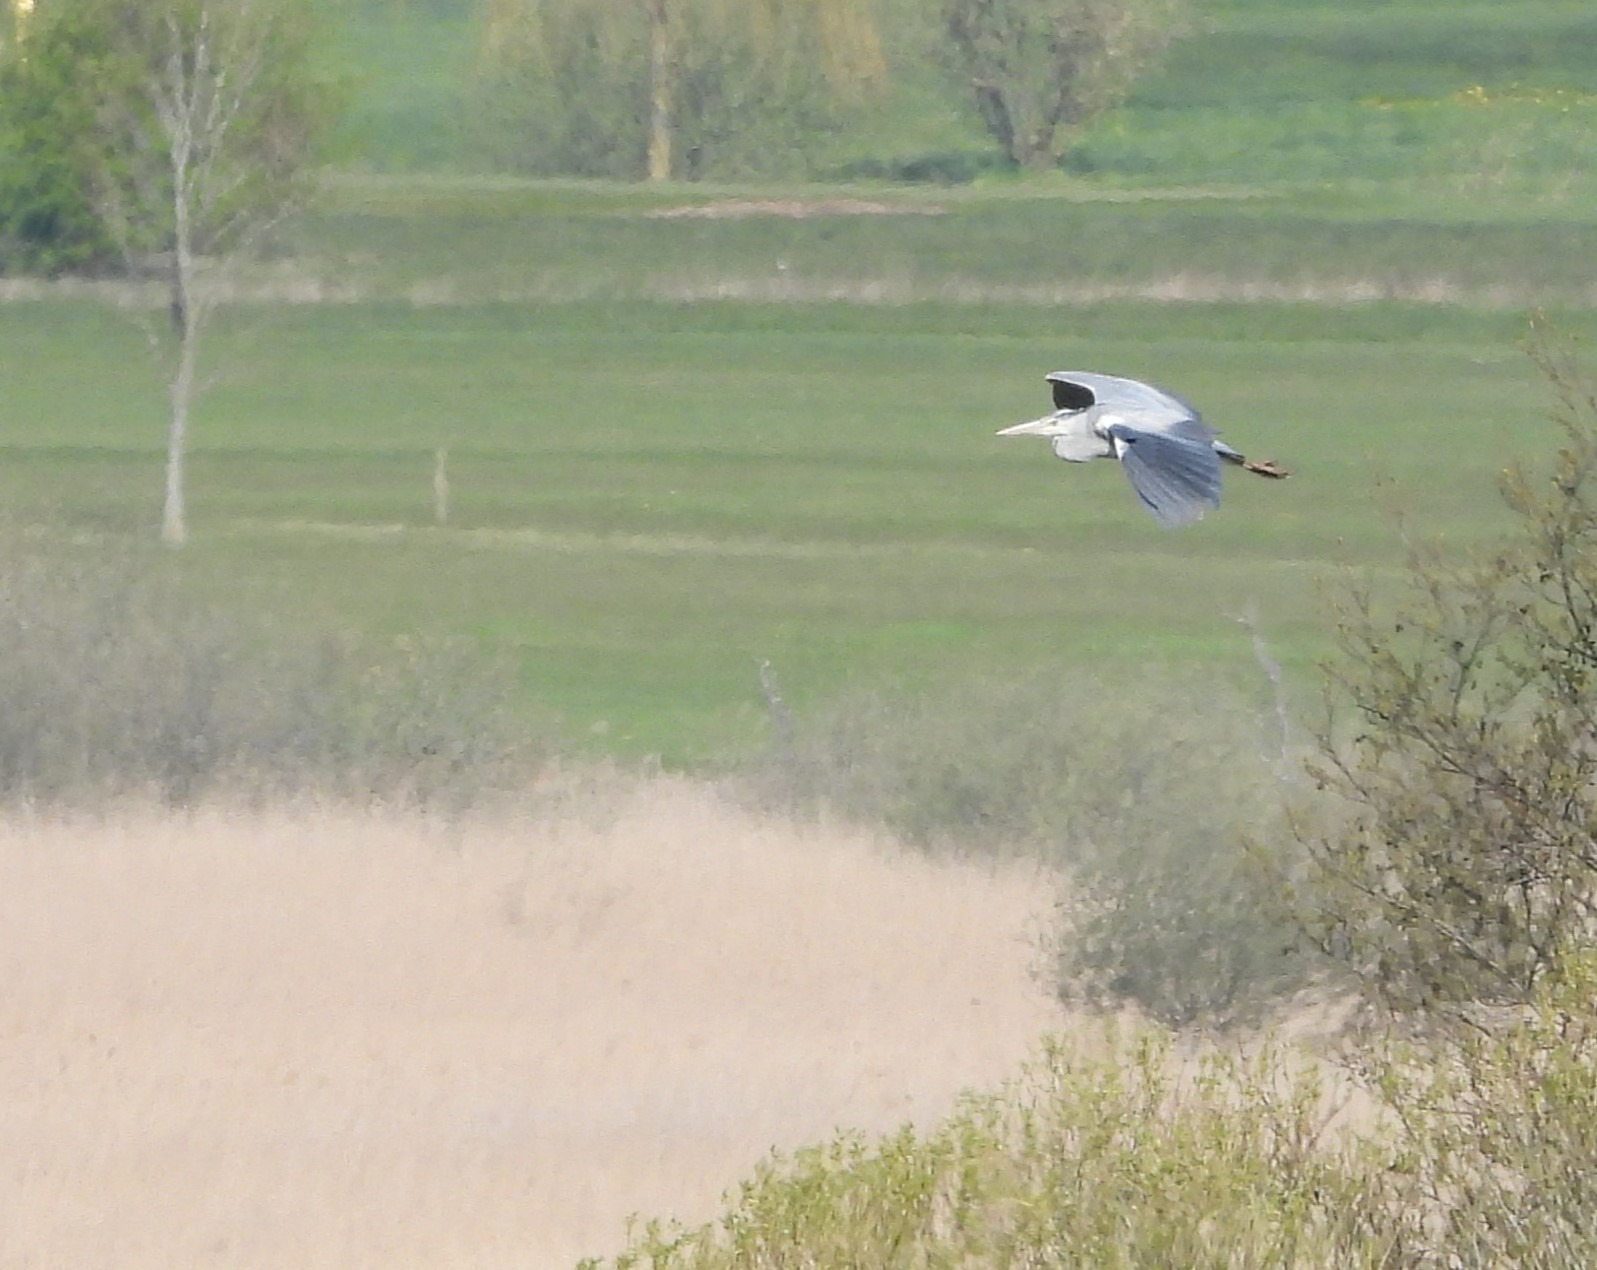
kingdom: Animalia
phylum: Chordata
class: Aves
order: Pelecaniformes
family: Ardeidae
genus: Ardea
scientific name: Ardea cinerea
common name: Fiskehejre
